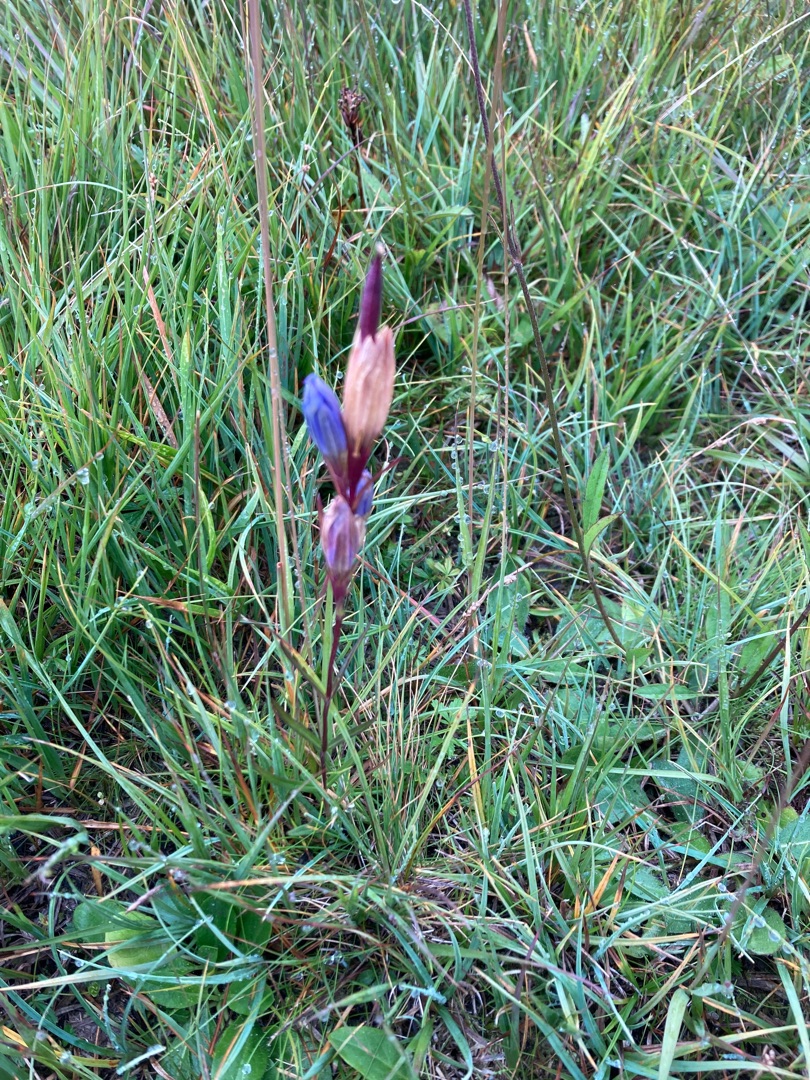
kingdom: Plantae
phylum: Tracheophyta
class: Magnoliopsida
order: Gentianales
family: Gentianaceae
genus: Gentiana
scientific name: Gentiana pneumonanthe
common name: Klokke-ensian
